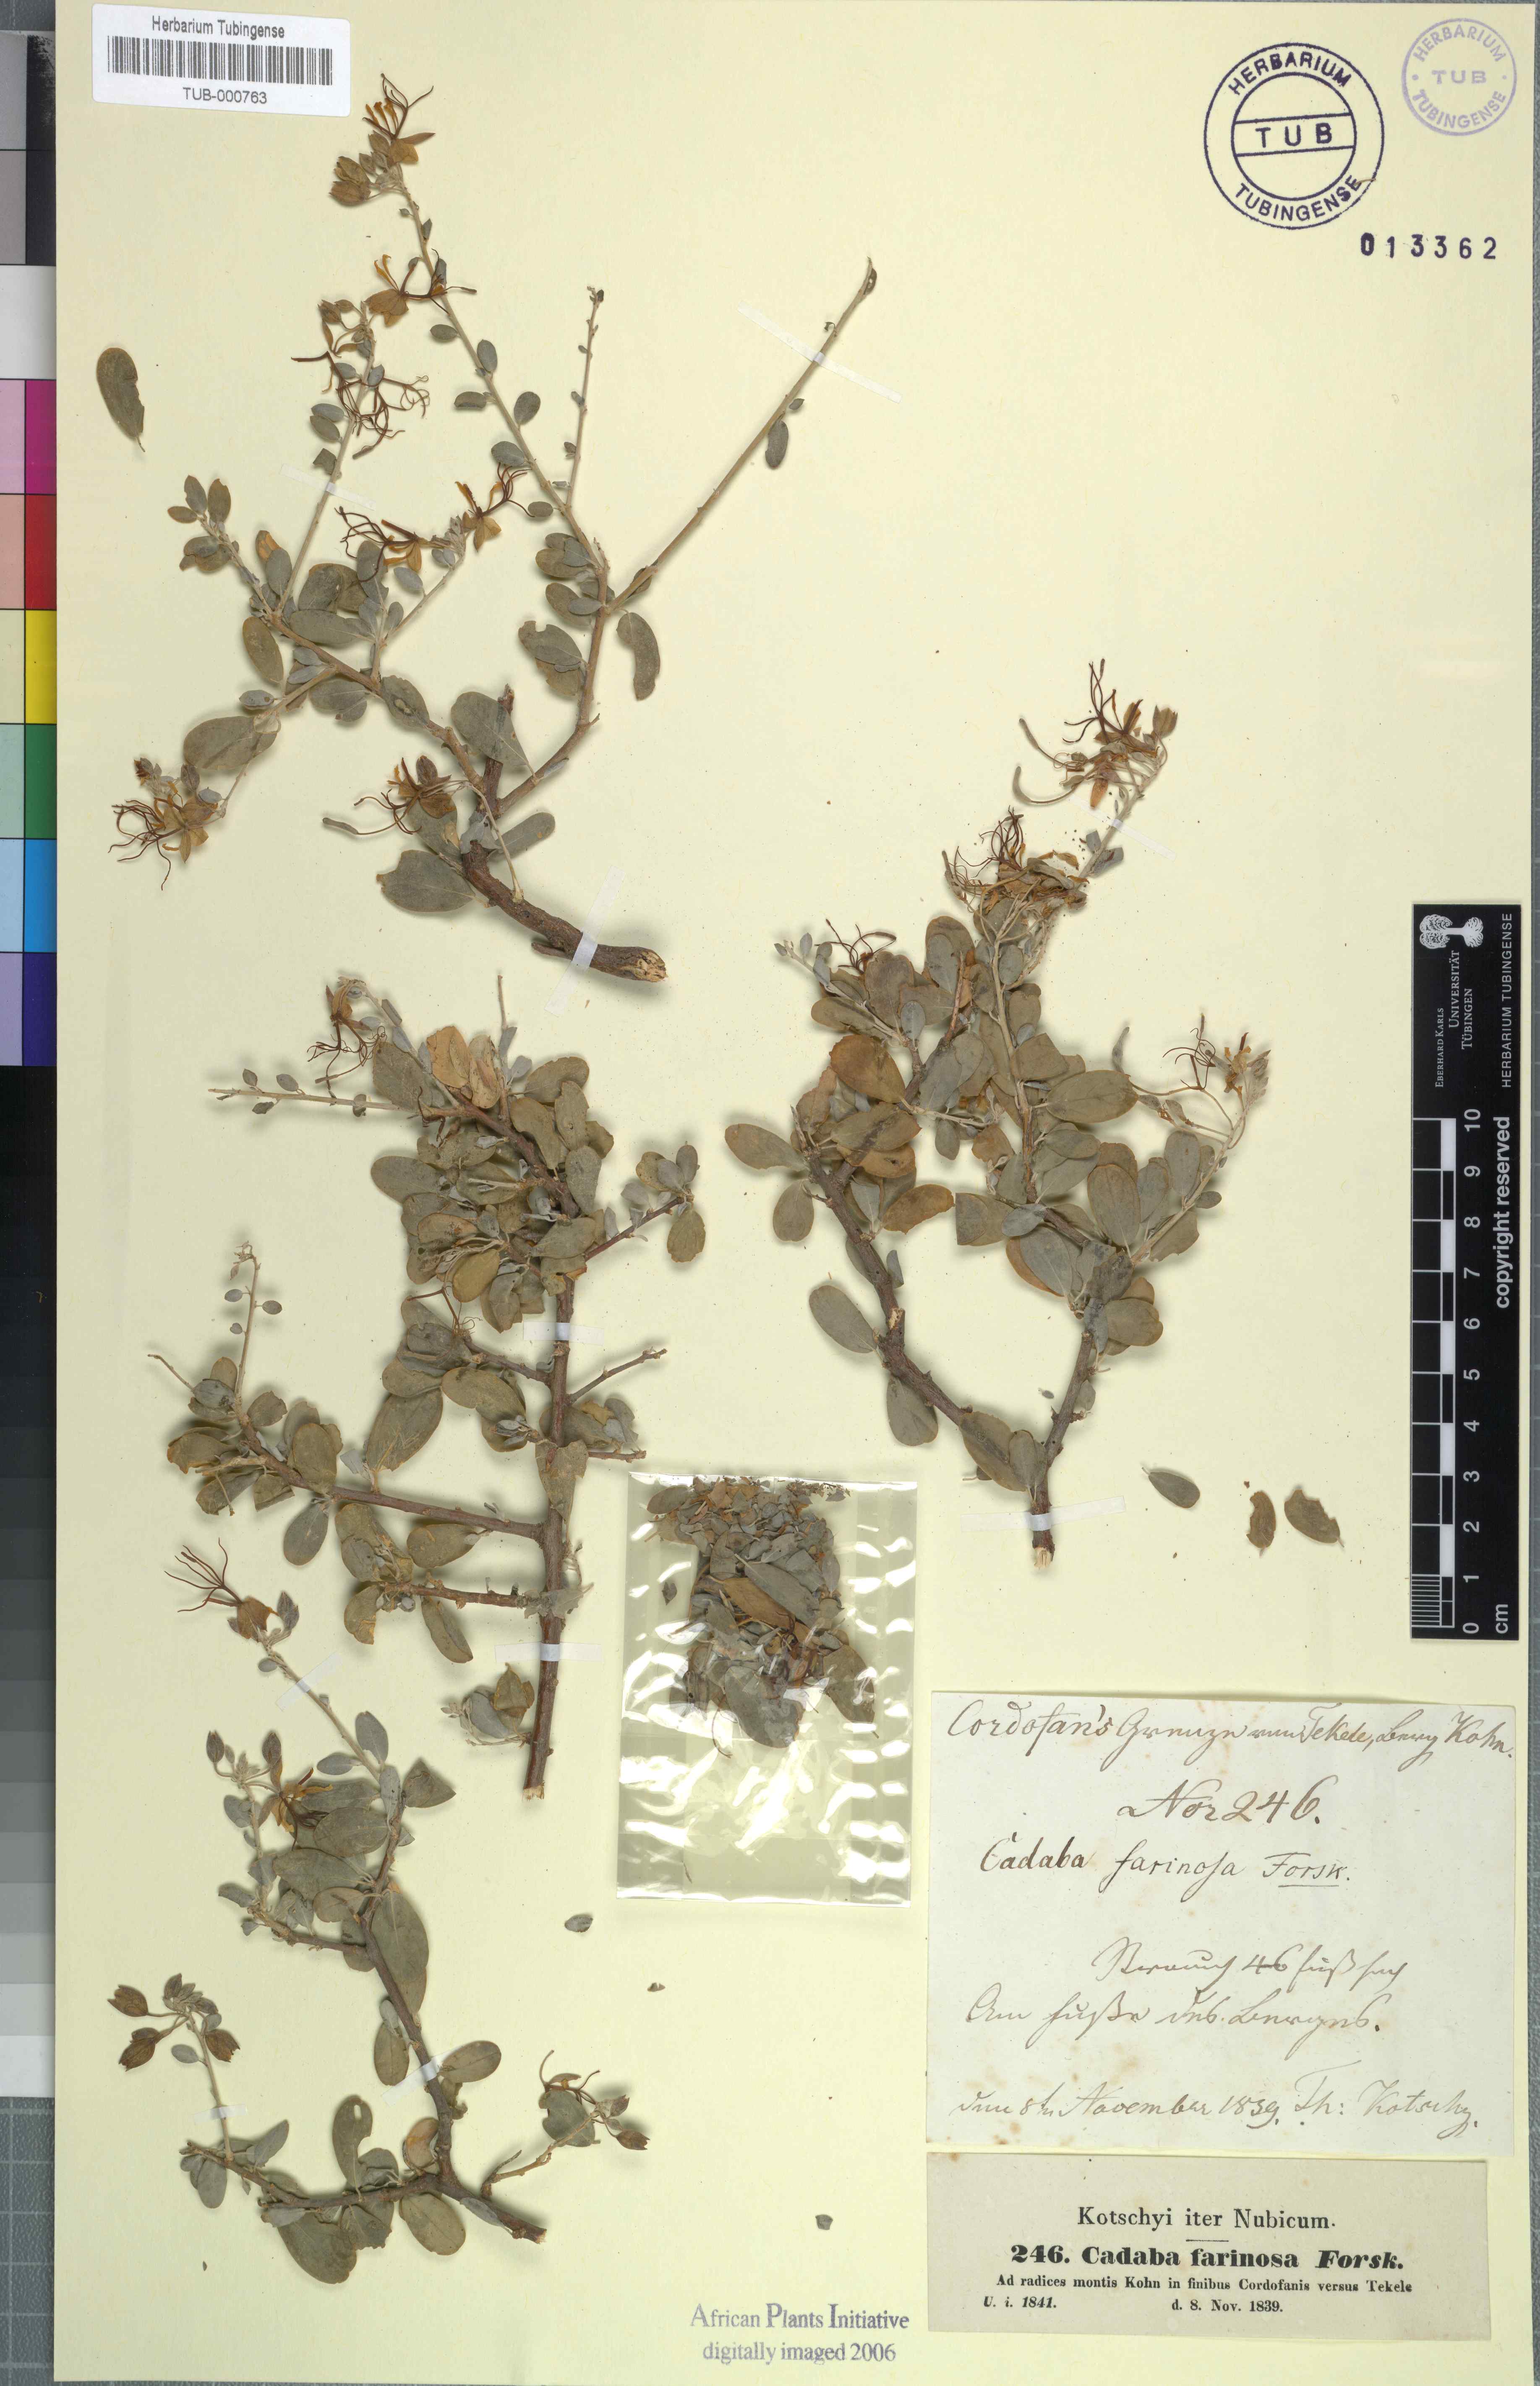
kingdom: Plantae
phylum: Tracheophyta
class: Magnoliopsida
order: Brassicales
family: Capparaceae
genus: Cadaba
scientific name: Cadaba farinosa
